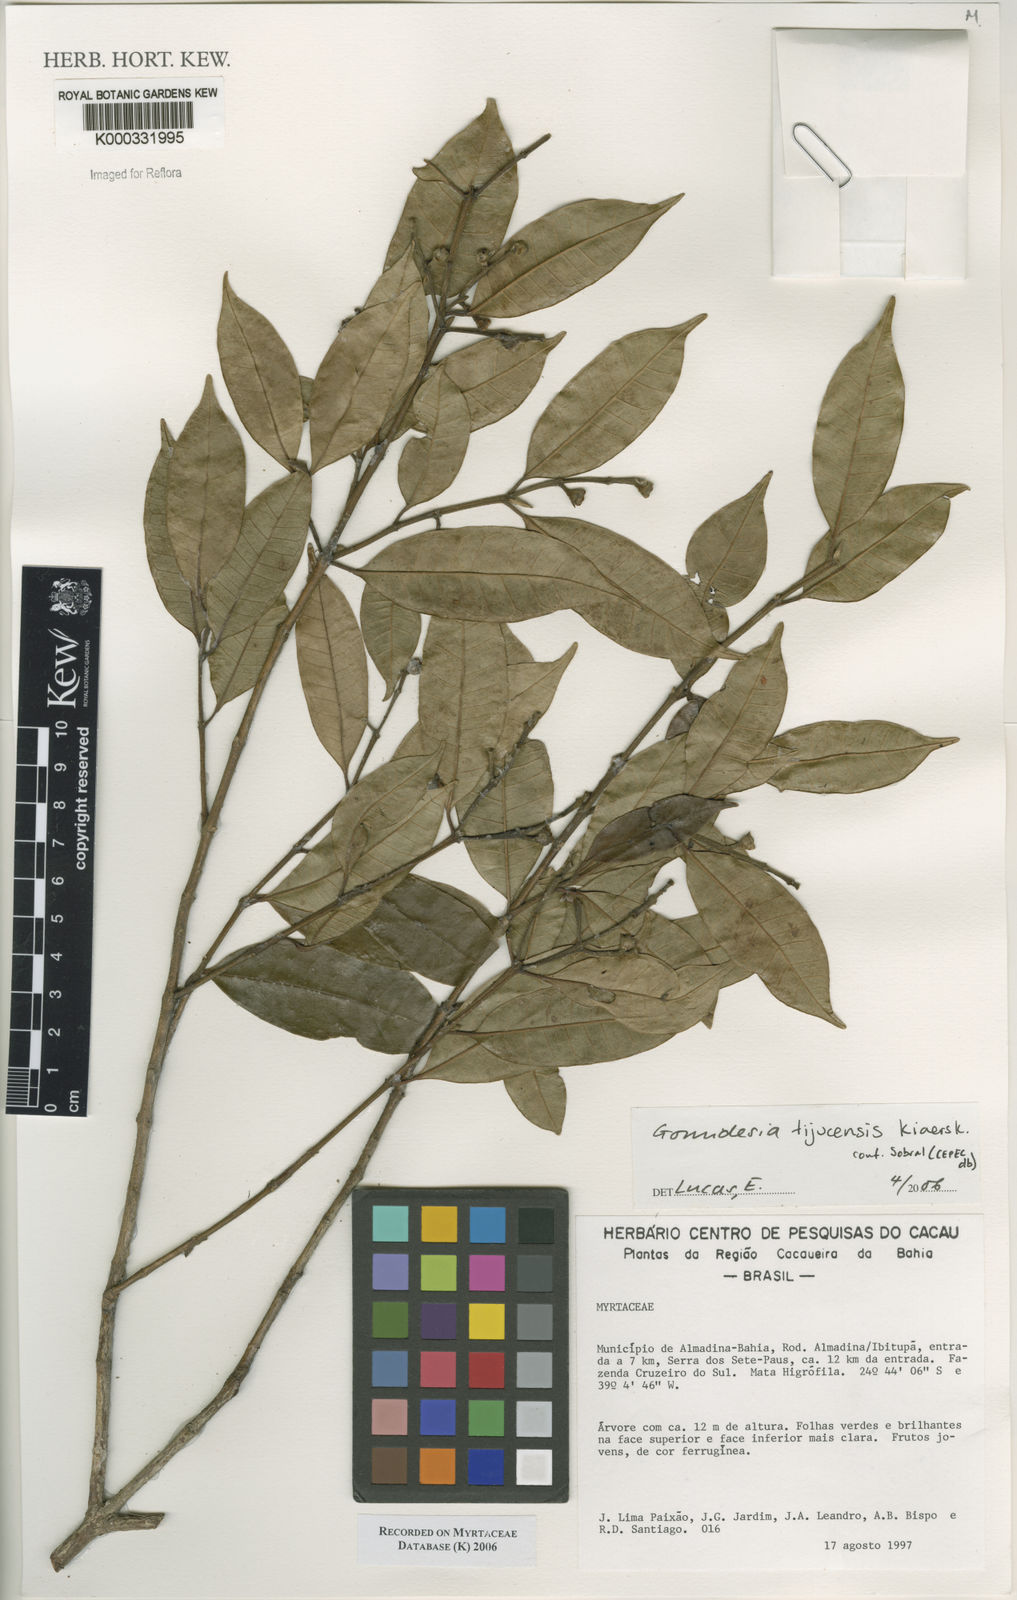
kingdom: Plantae
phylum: Tracheophyta
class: Magnoliopsida
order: Myrtales
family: Myrtaceae
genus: Myrcia
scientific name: Myrcia
